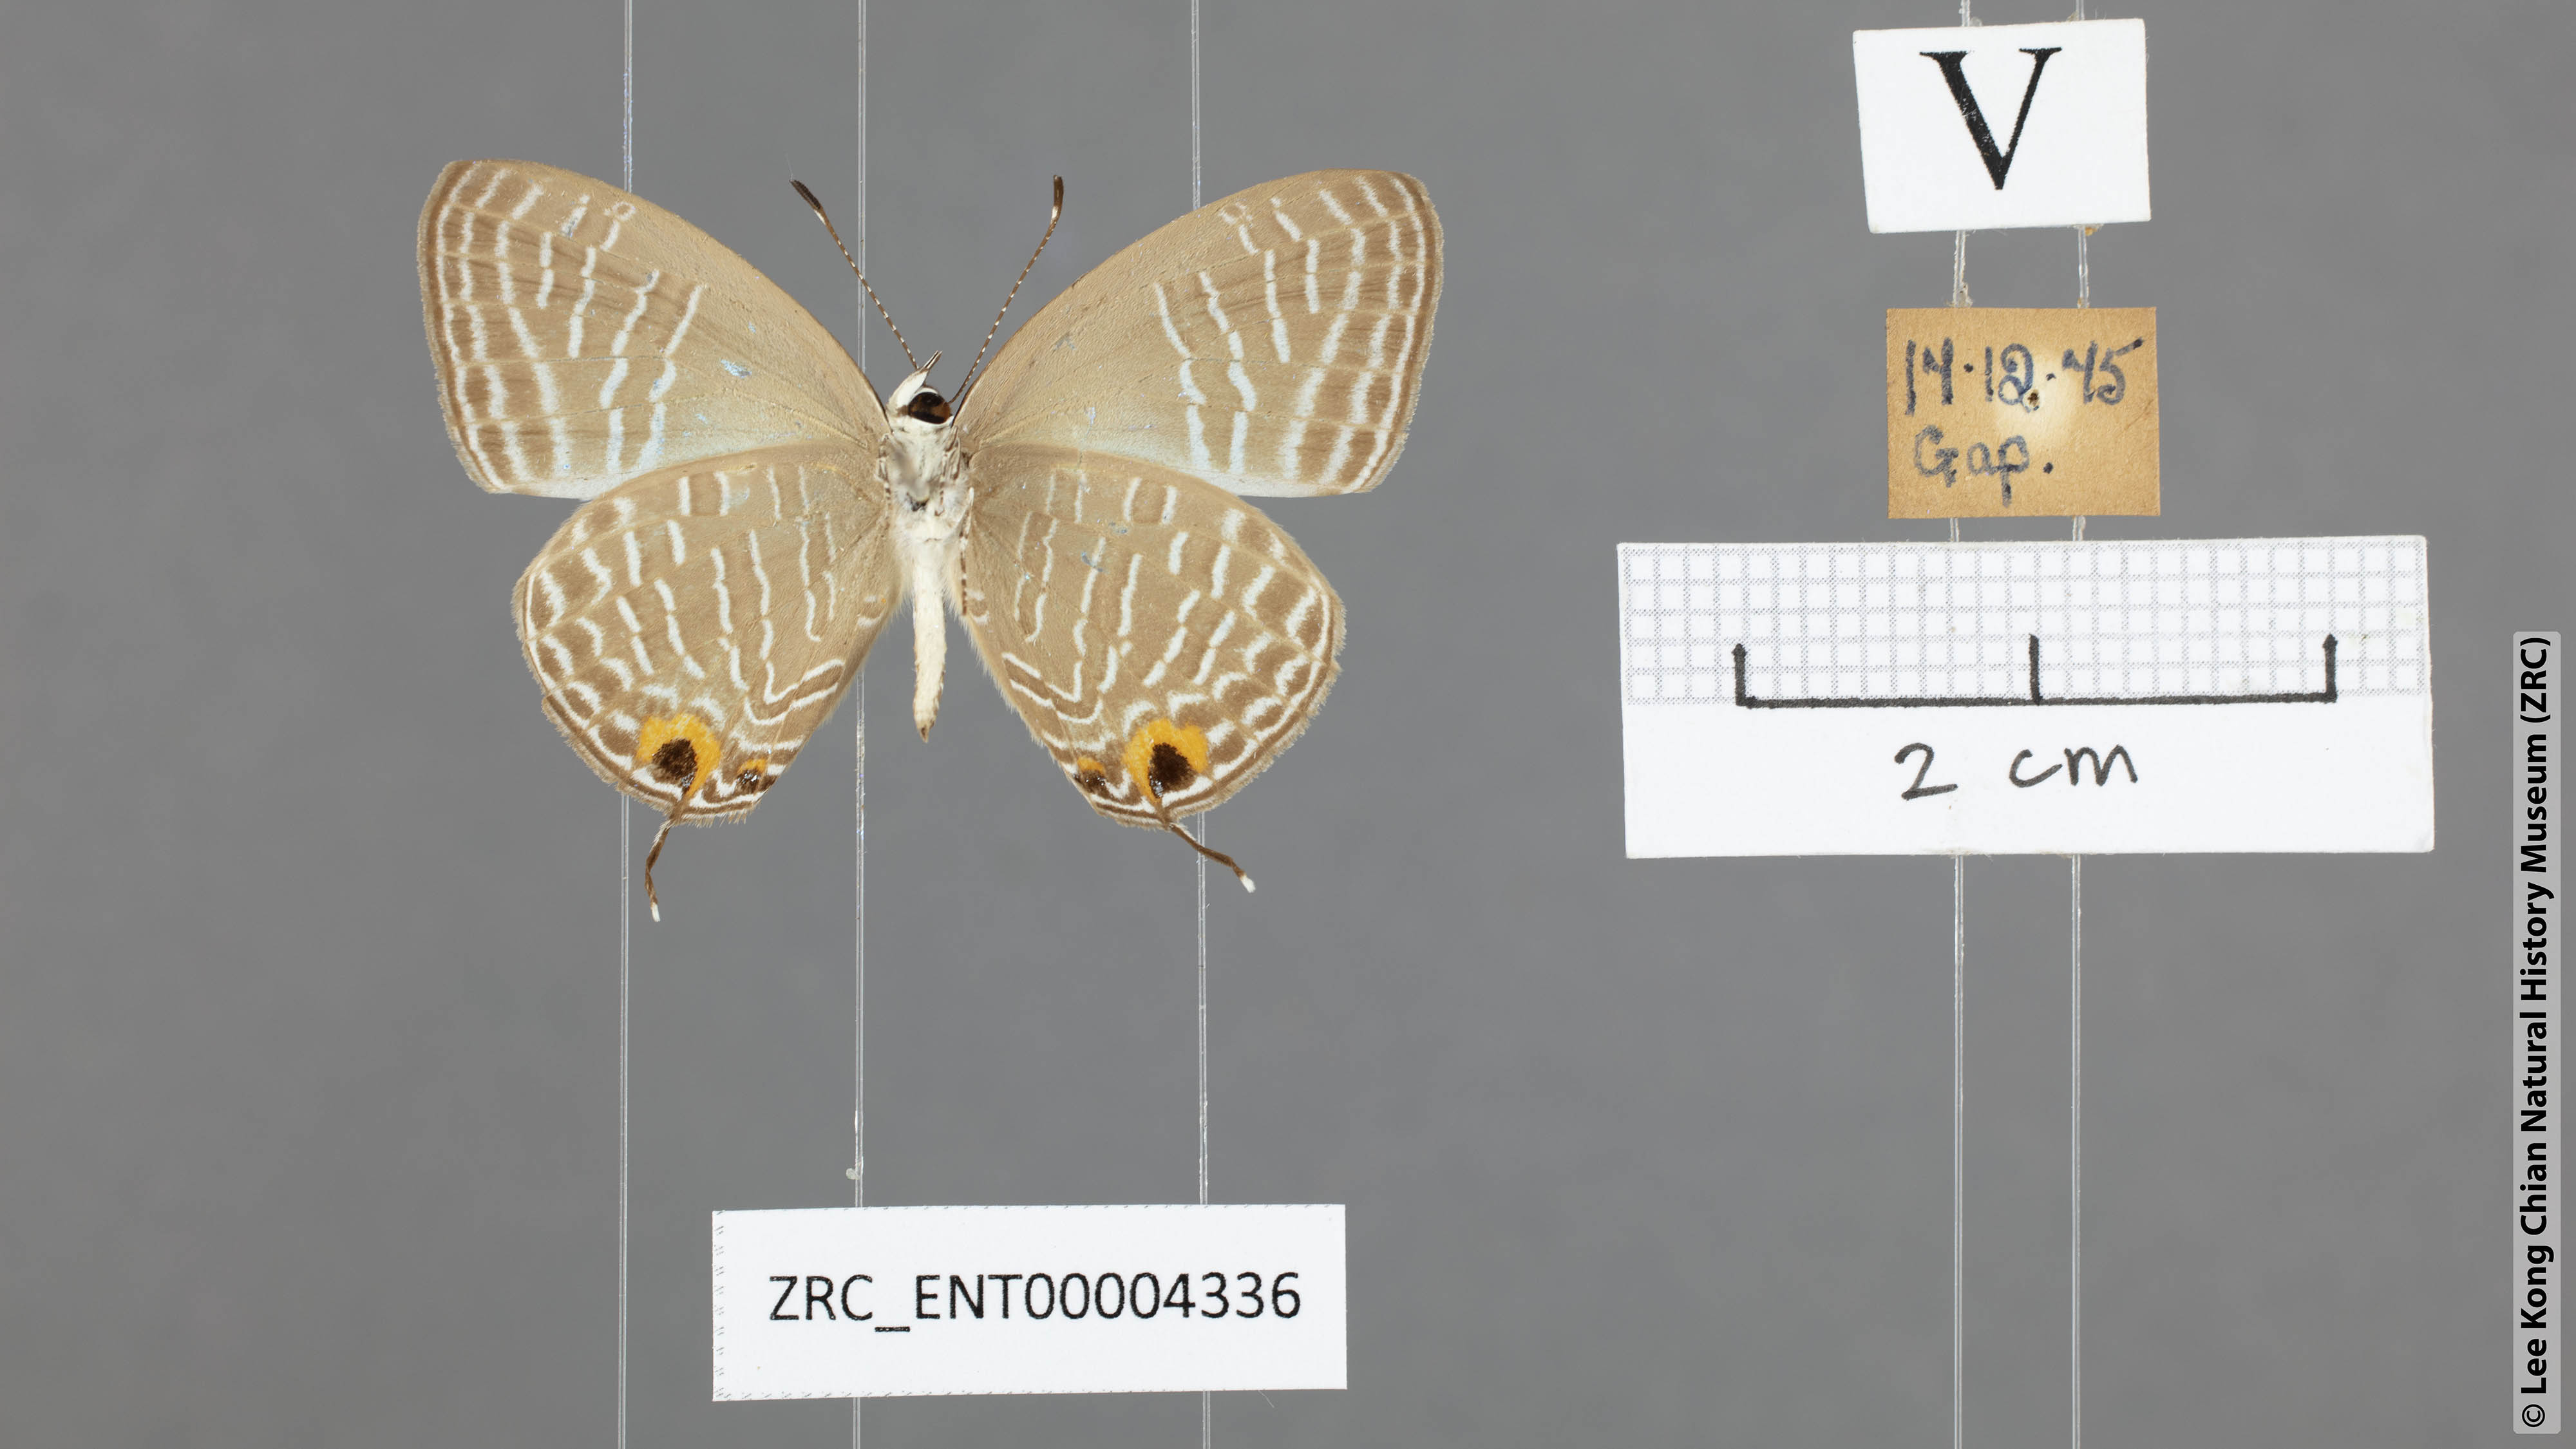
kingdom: Animalia
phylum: Arthropoda
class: Insecta
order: Lepidoptera
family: Lycaenidae
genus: Jamides
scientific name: Jamides elpis
